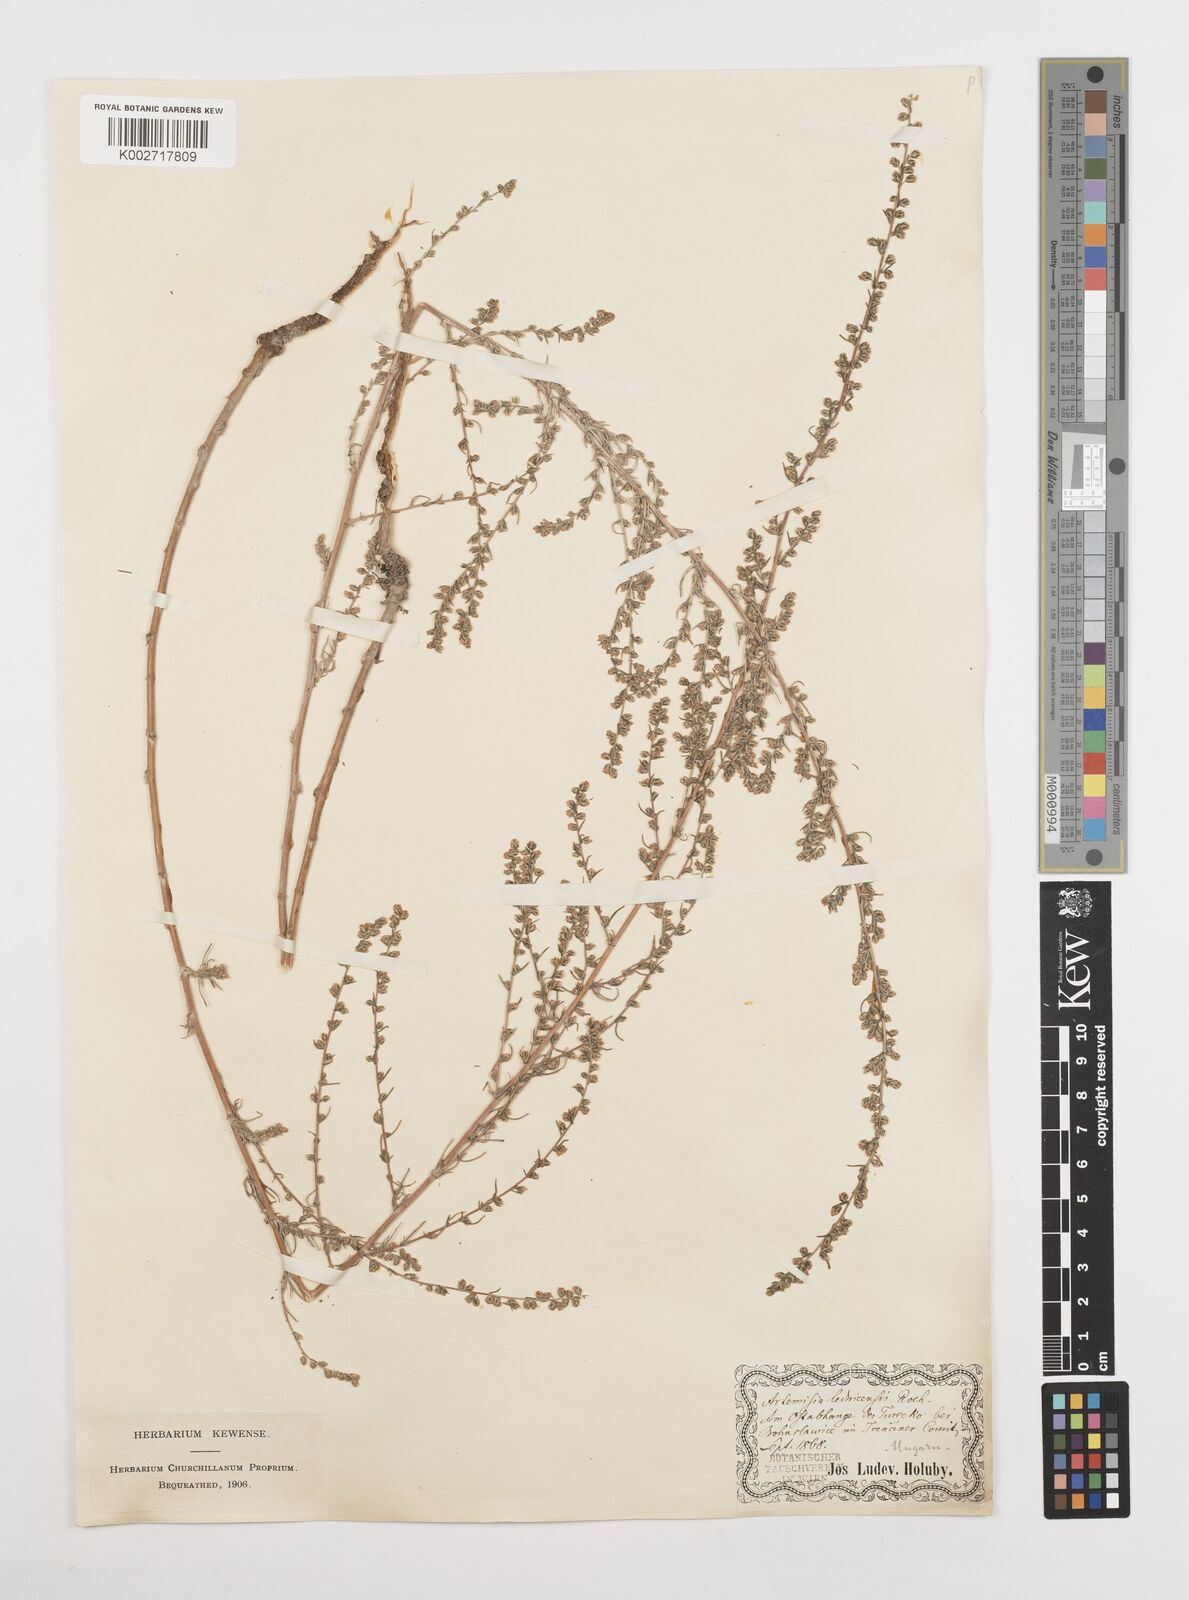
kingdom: Plantae
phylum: Tracheophyta
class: Magnoliopsida
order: Asterales
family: Asteraceae
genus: Artemisia
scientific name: Artemisia campestris
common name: Field wormwood
